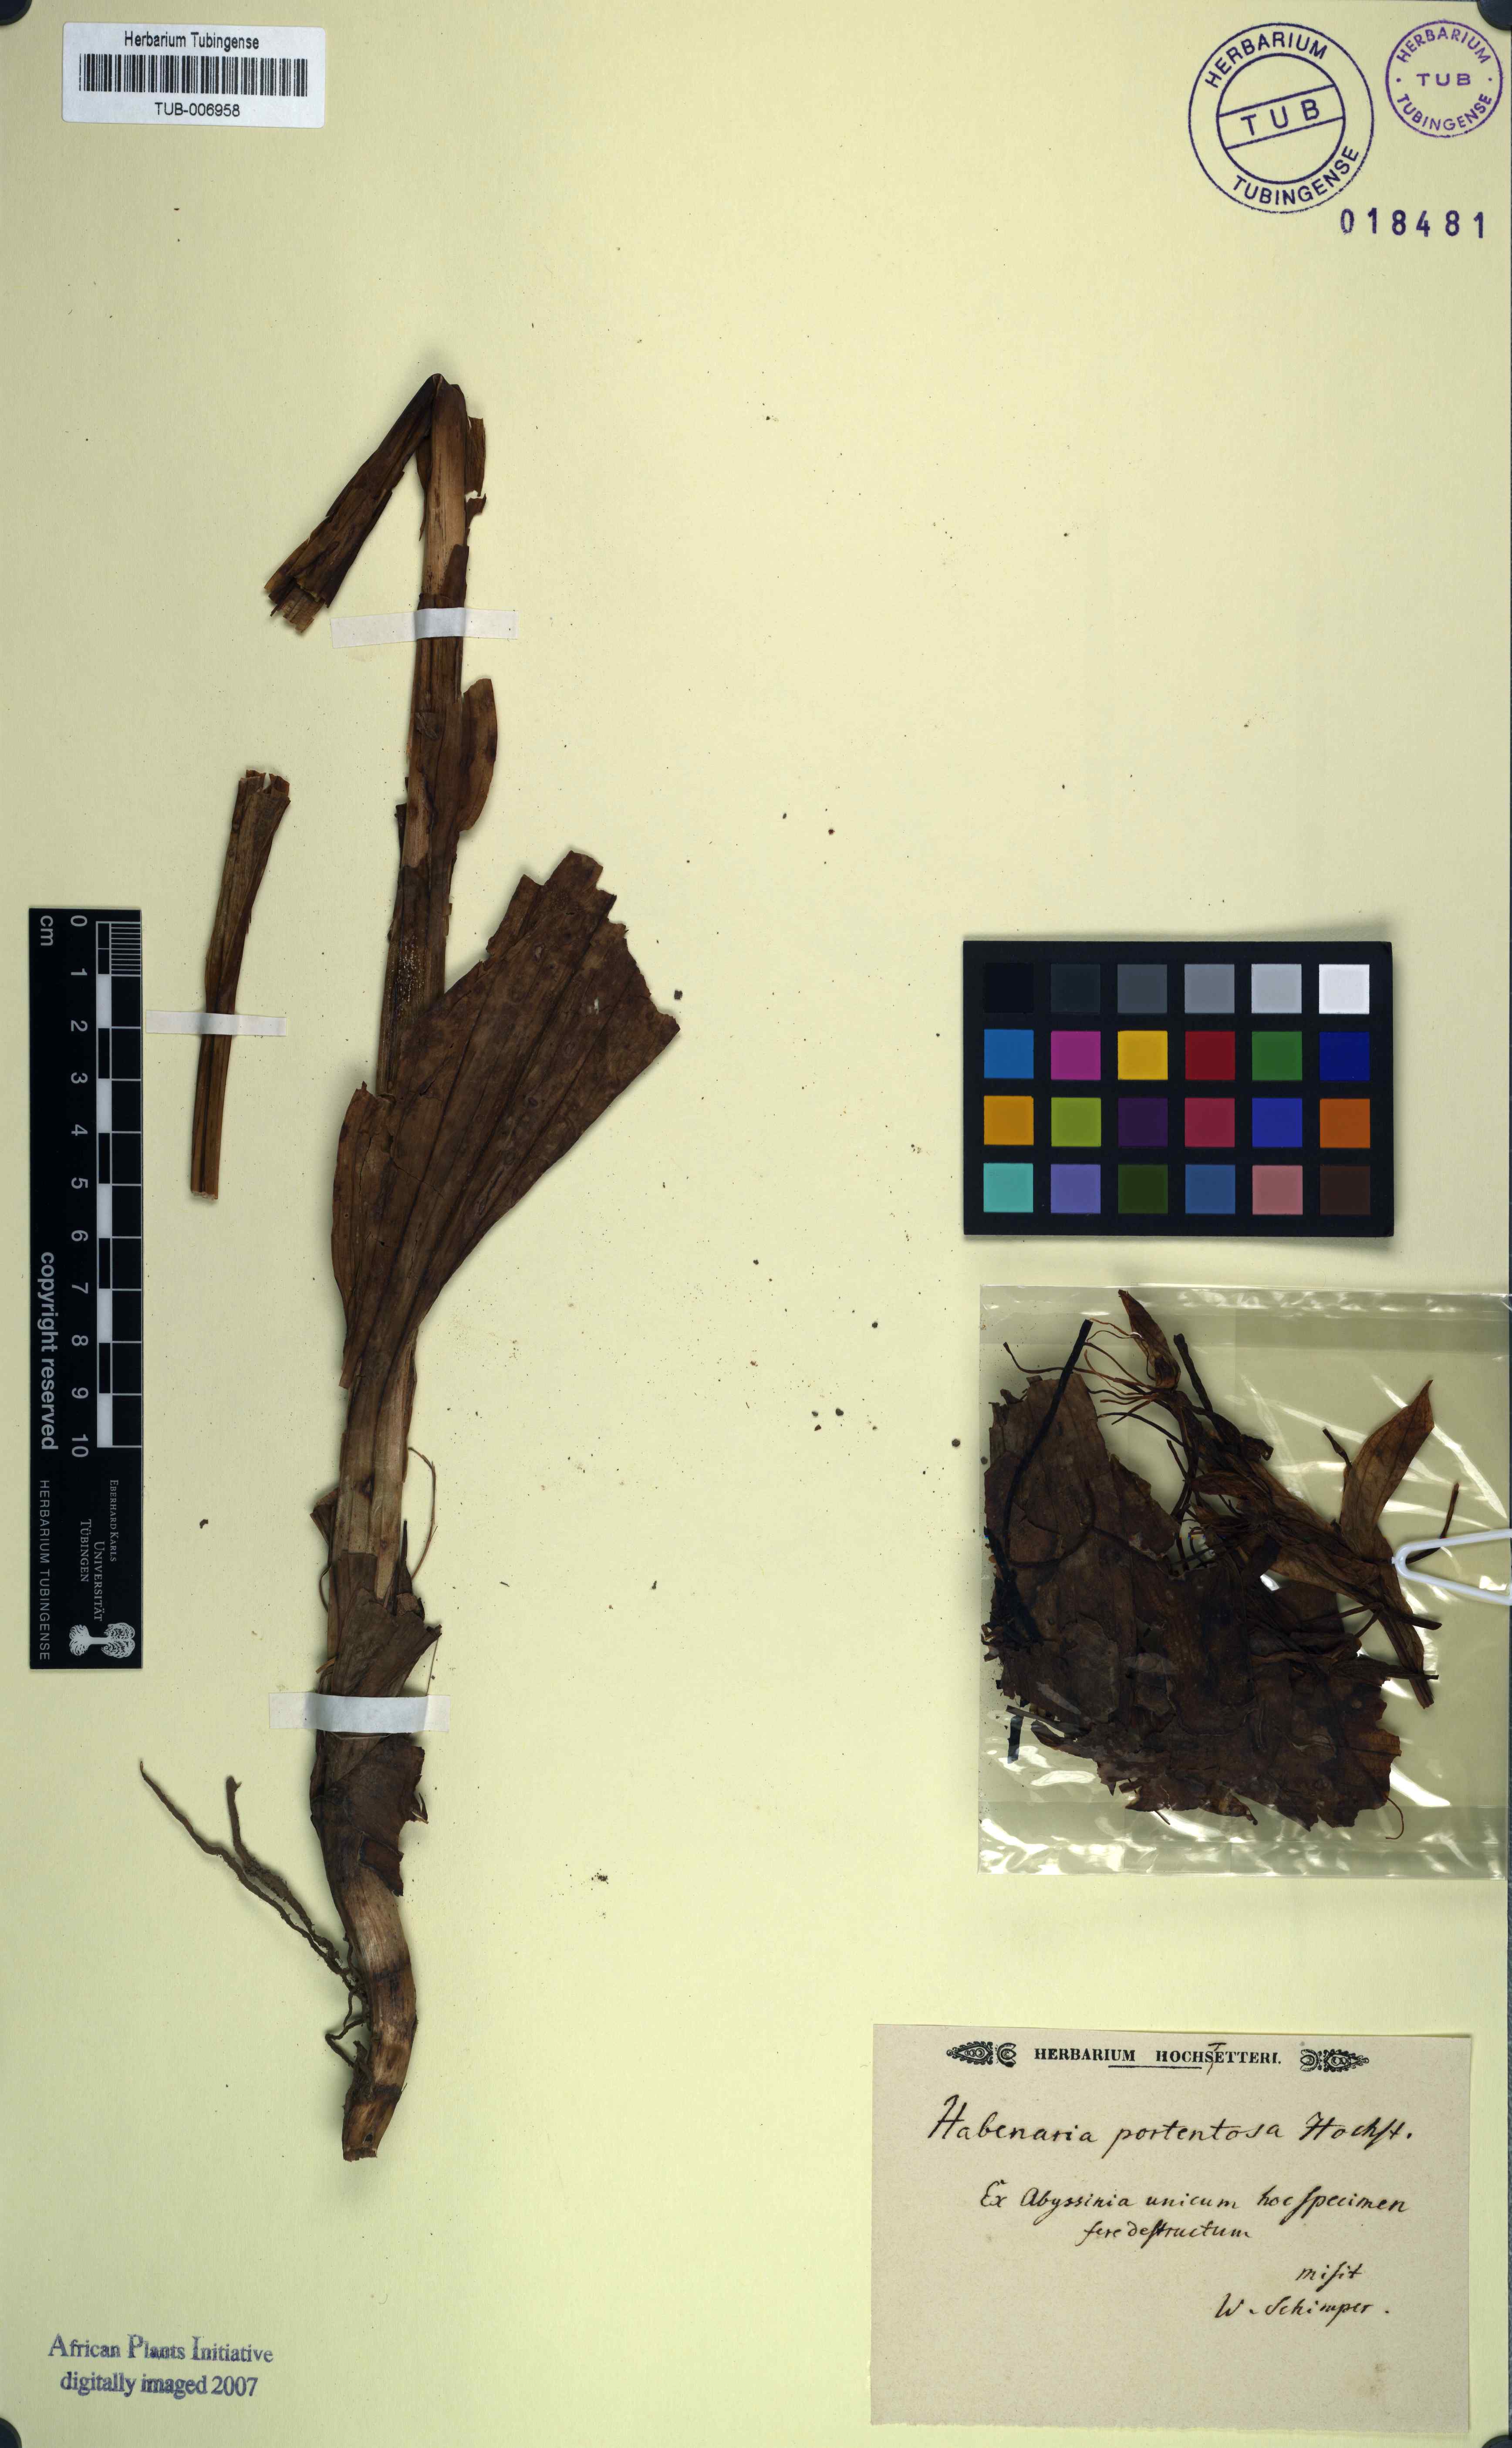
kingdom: Plantae
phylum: Tracheophyta
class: Liliopsida
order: Asparagales
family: Orchidaceae
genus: Habenaria
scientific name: Habenaria
